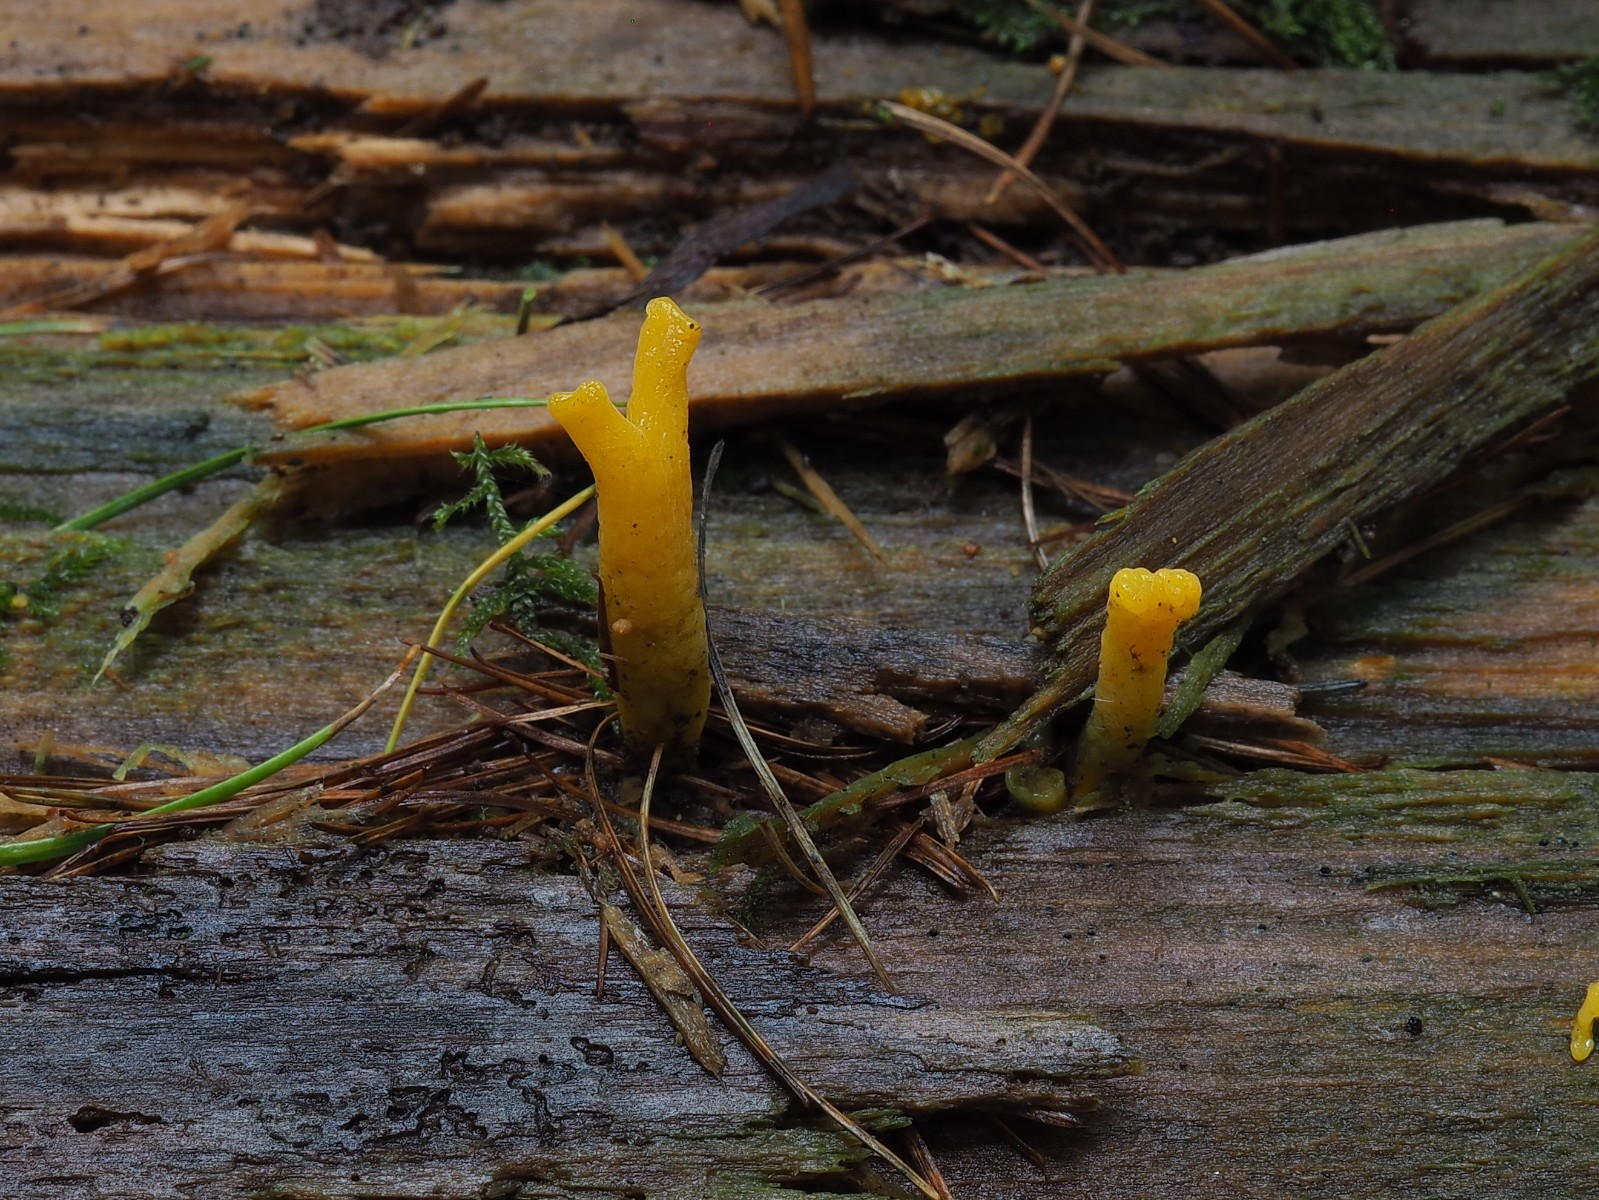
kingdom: Fungi
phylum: Basidiomycota
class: Dacrymycetes
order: Dacrymycetales
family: Dacrymycetaceae
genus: Calocera
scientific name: Calocera viscosa
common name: almindelig guldgaffel
